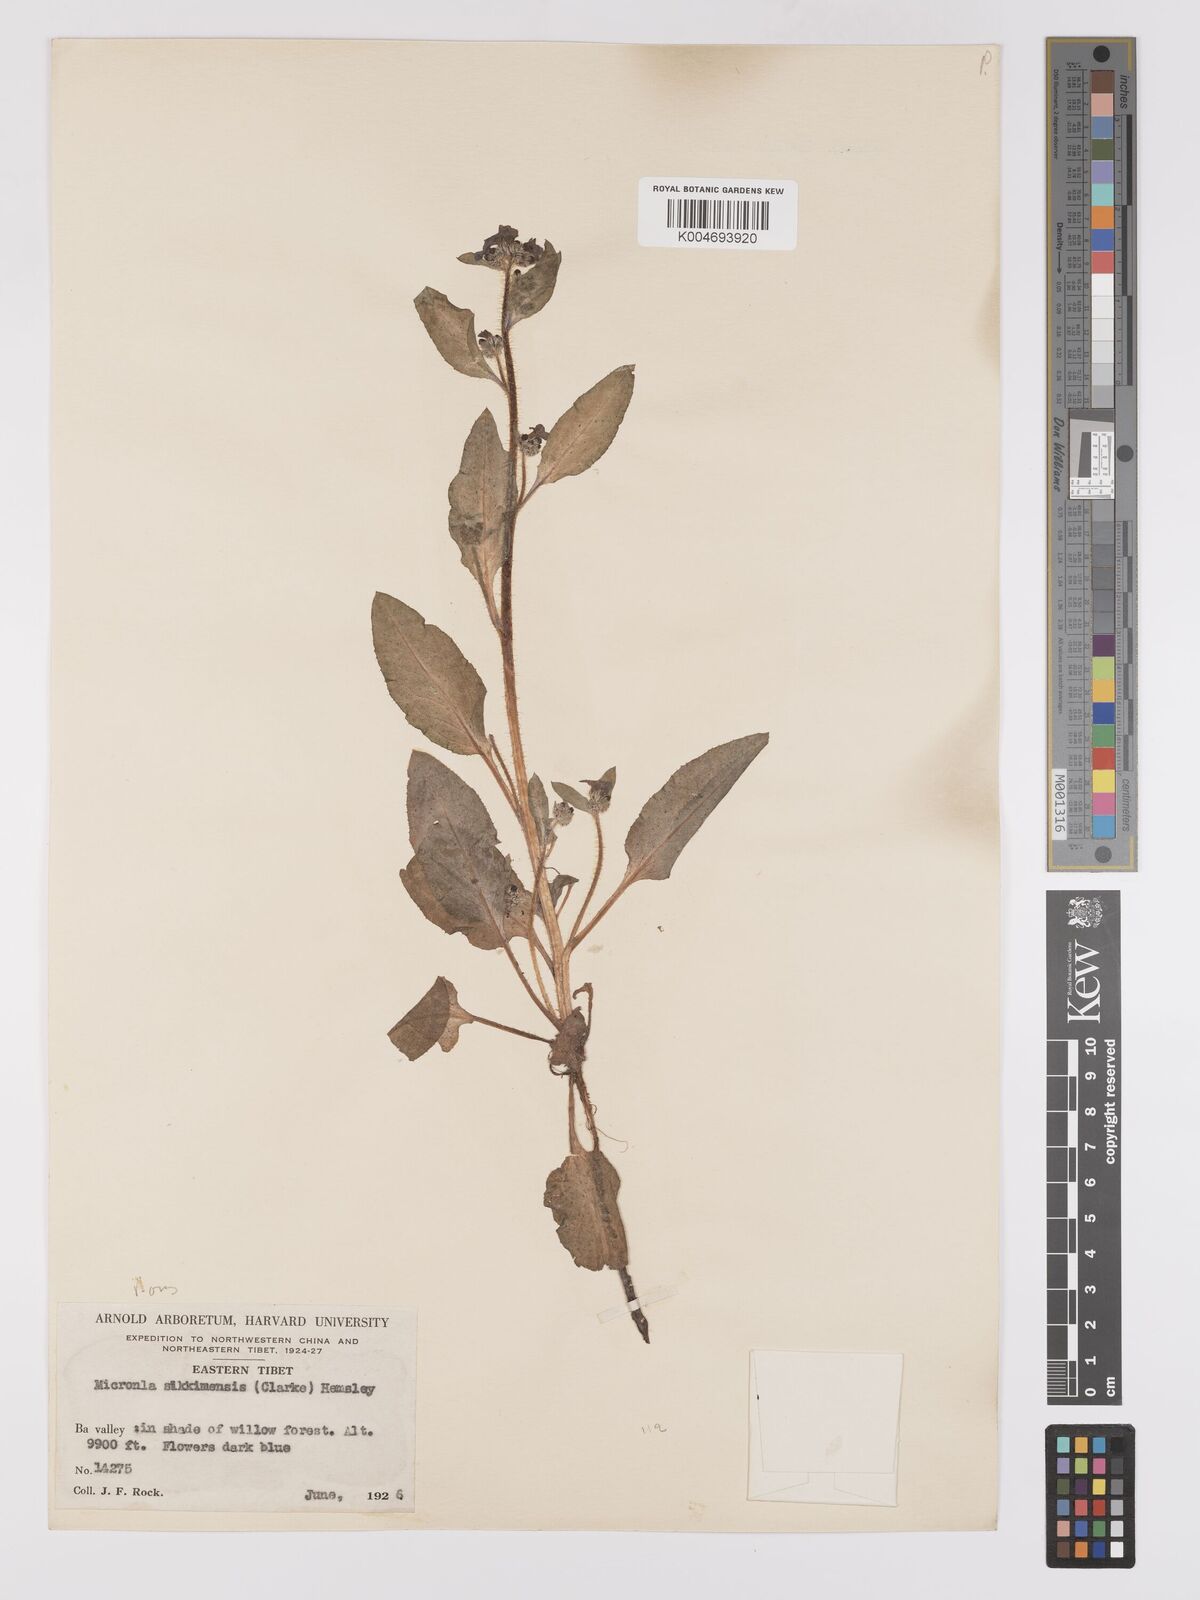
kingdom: Plantae
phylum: Tracheophyta
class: Magnoliopsida
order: Boraginales
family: Boraginaceae
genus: Microula
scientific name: Microula sikkimensis
